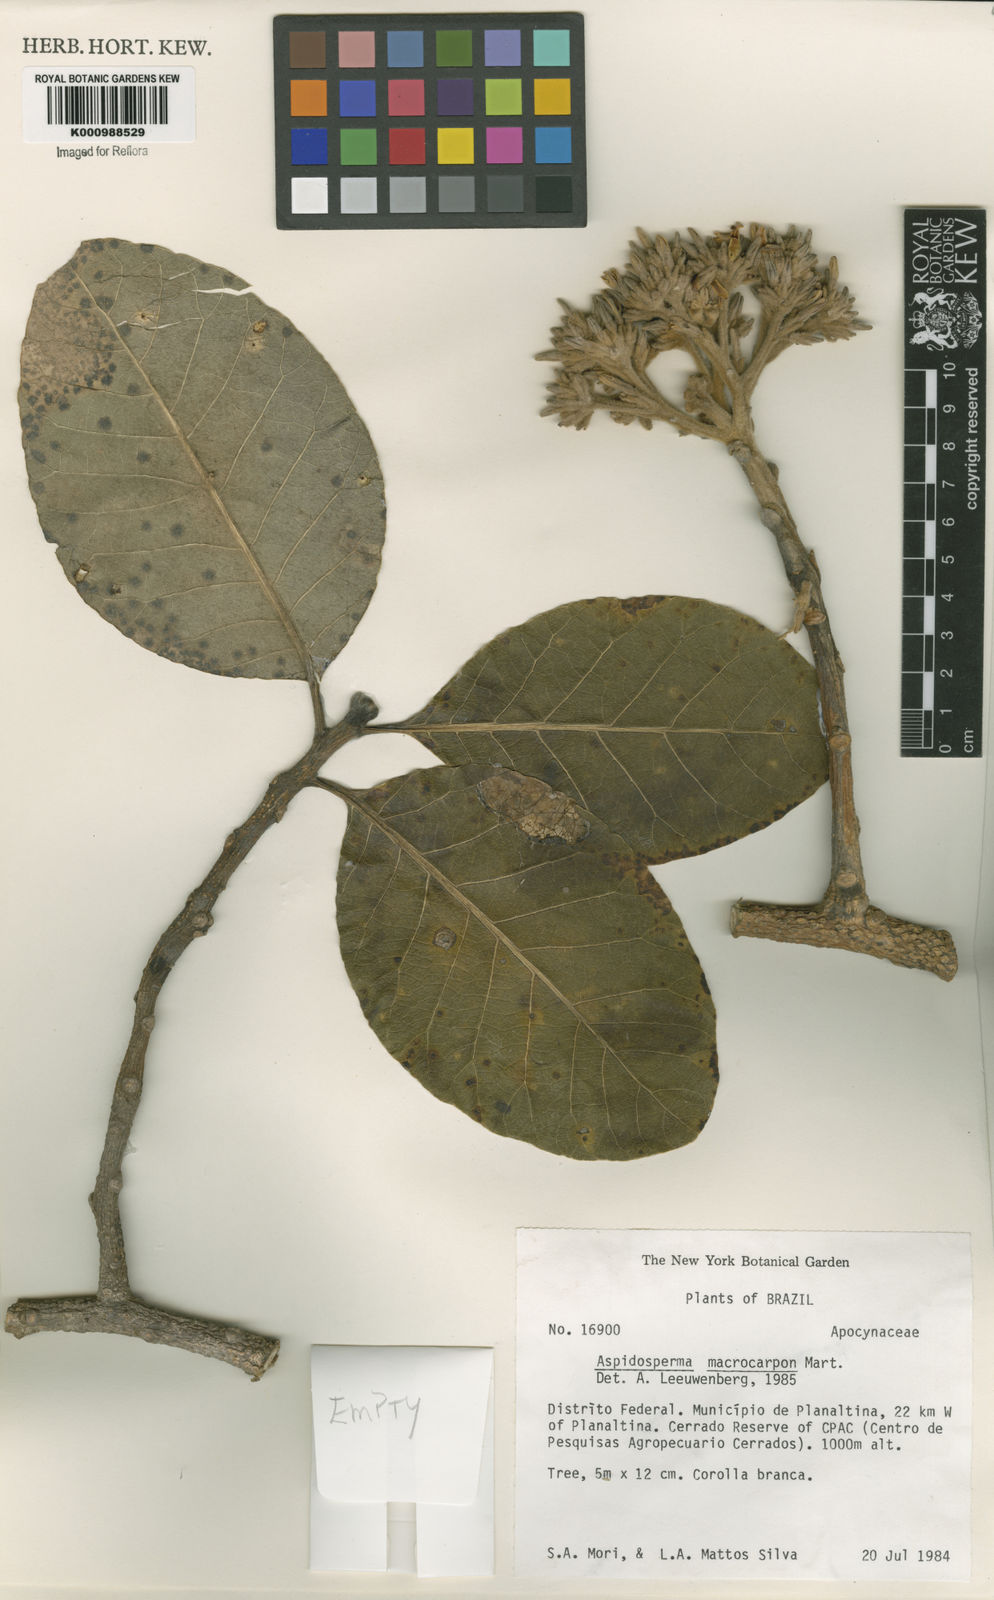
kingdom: Plantae
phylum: Tracheophyta
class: Magnoliopsida
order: Gentianales
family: Apocynaceae
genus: Aspidosperma
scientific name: Aspidosperma macrocarpon
